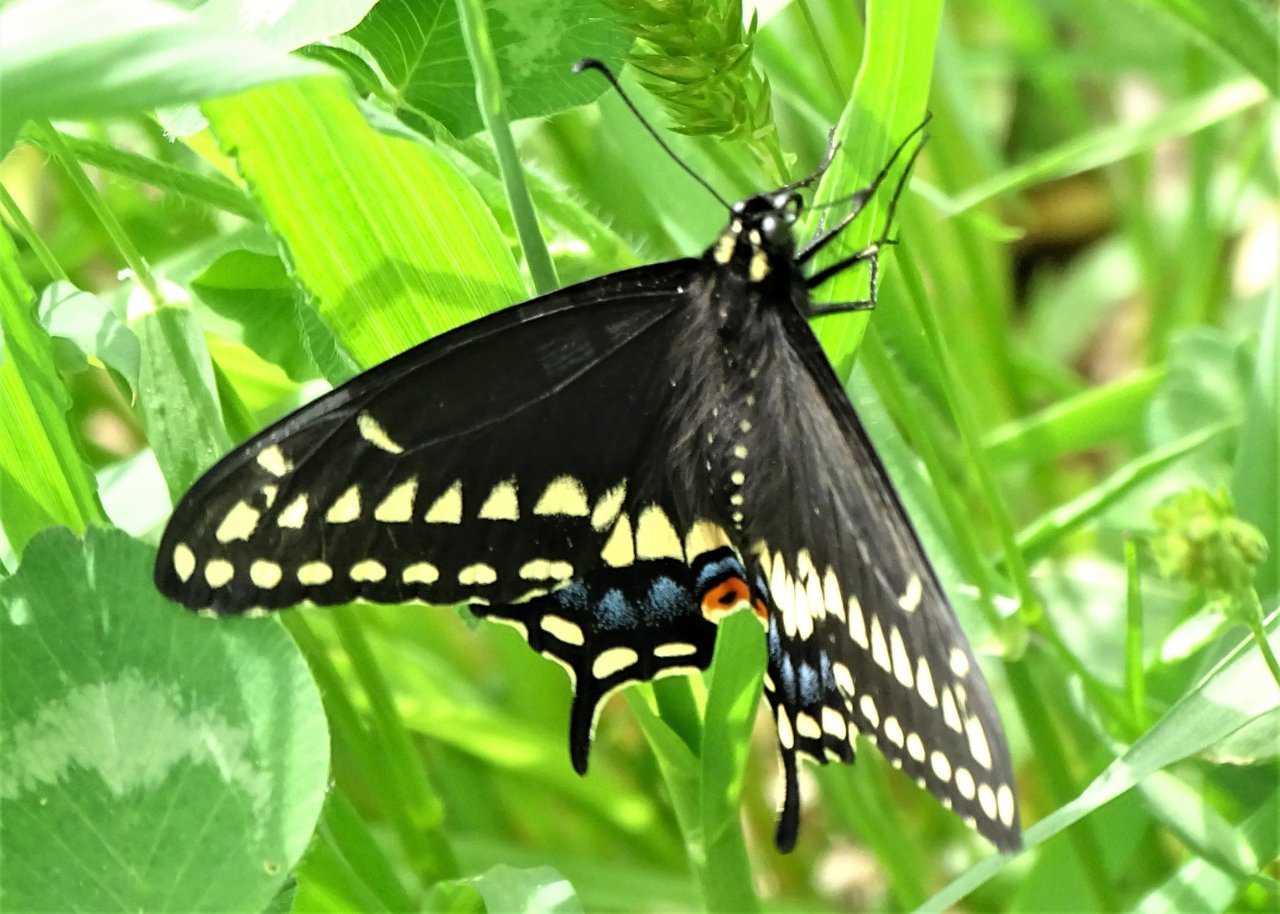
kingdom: Animalia
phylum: Arthropoda
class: Insecta
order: Lepidoptera
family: Papilionidae
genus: Papilio
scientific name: Papilio polyxenes
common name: Black Swallowtail
